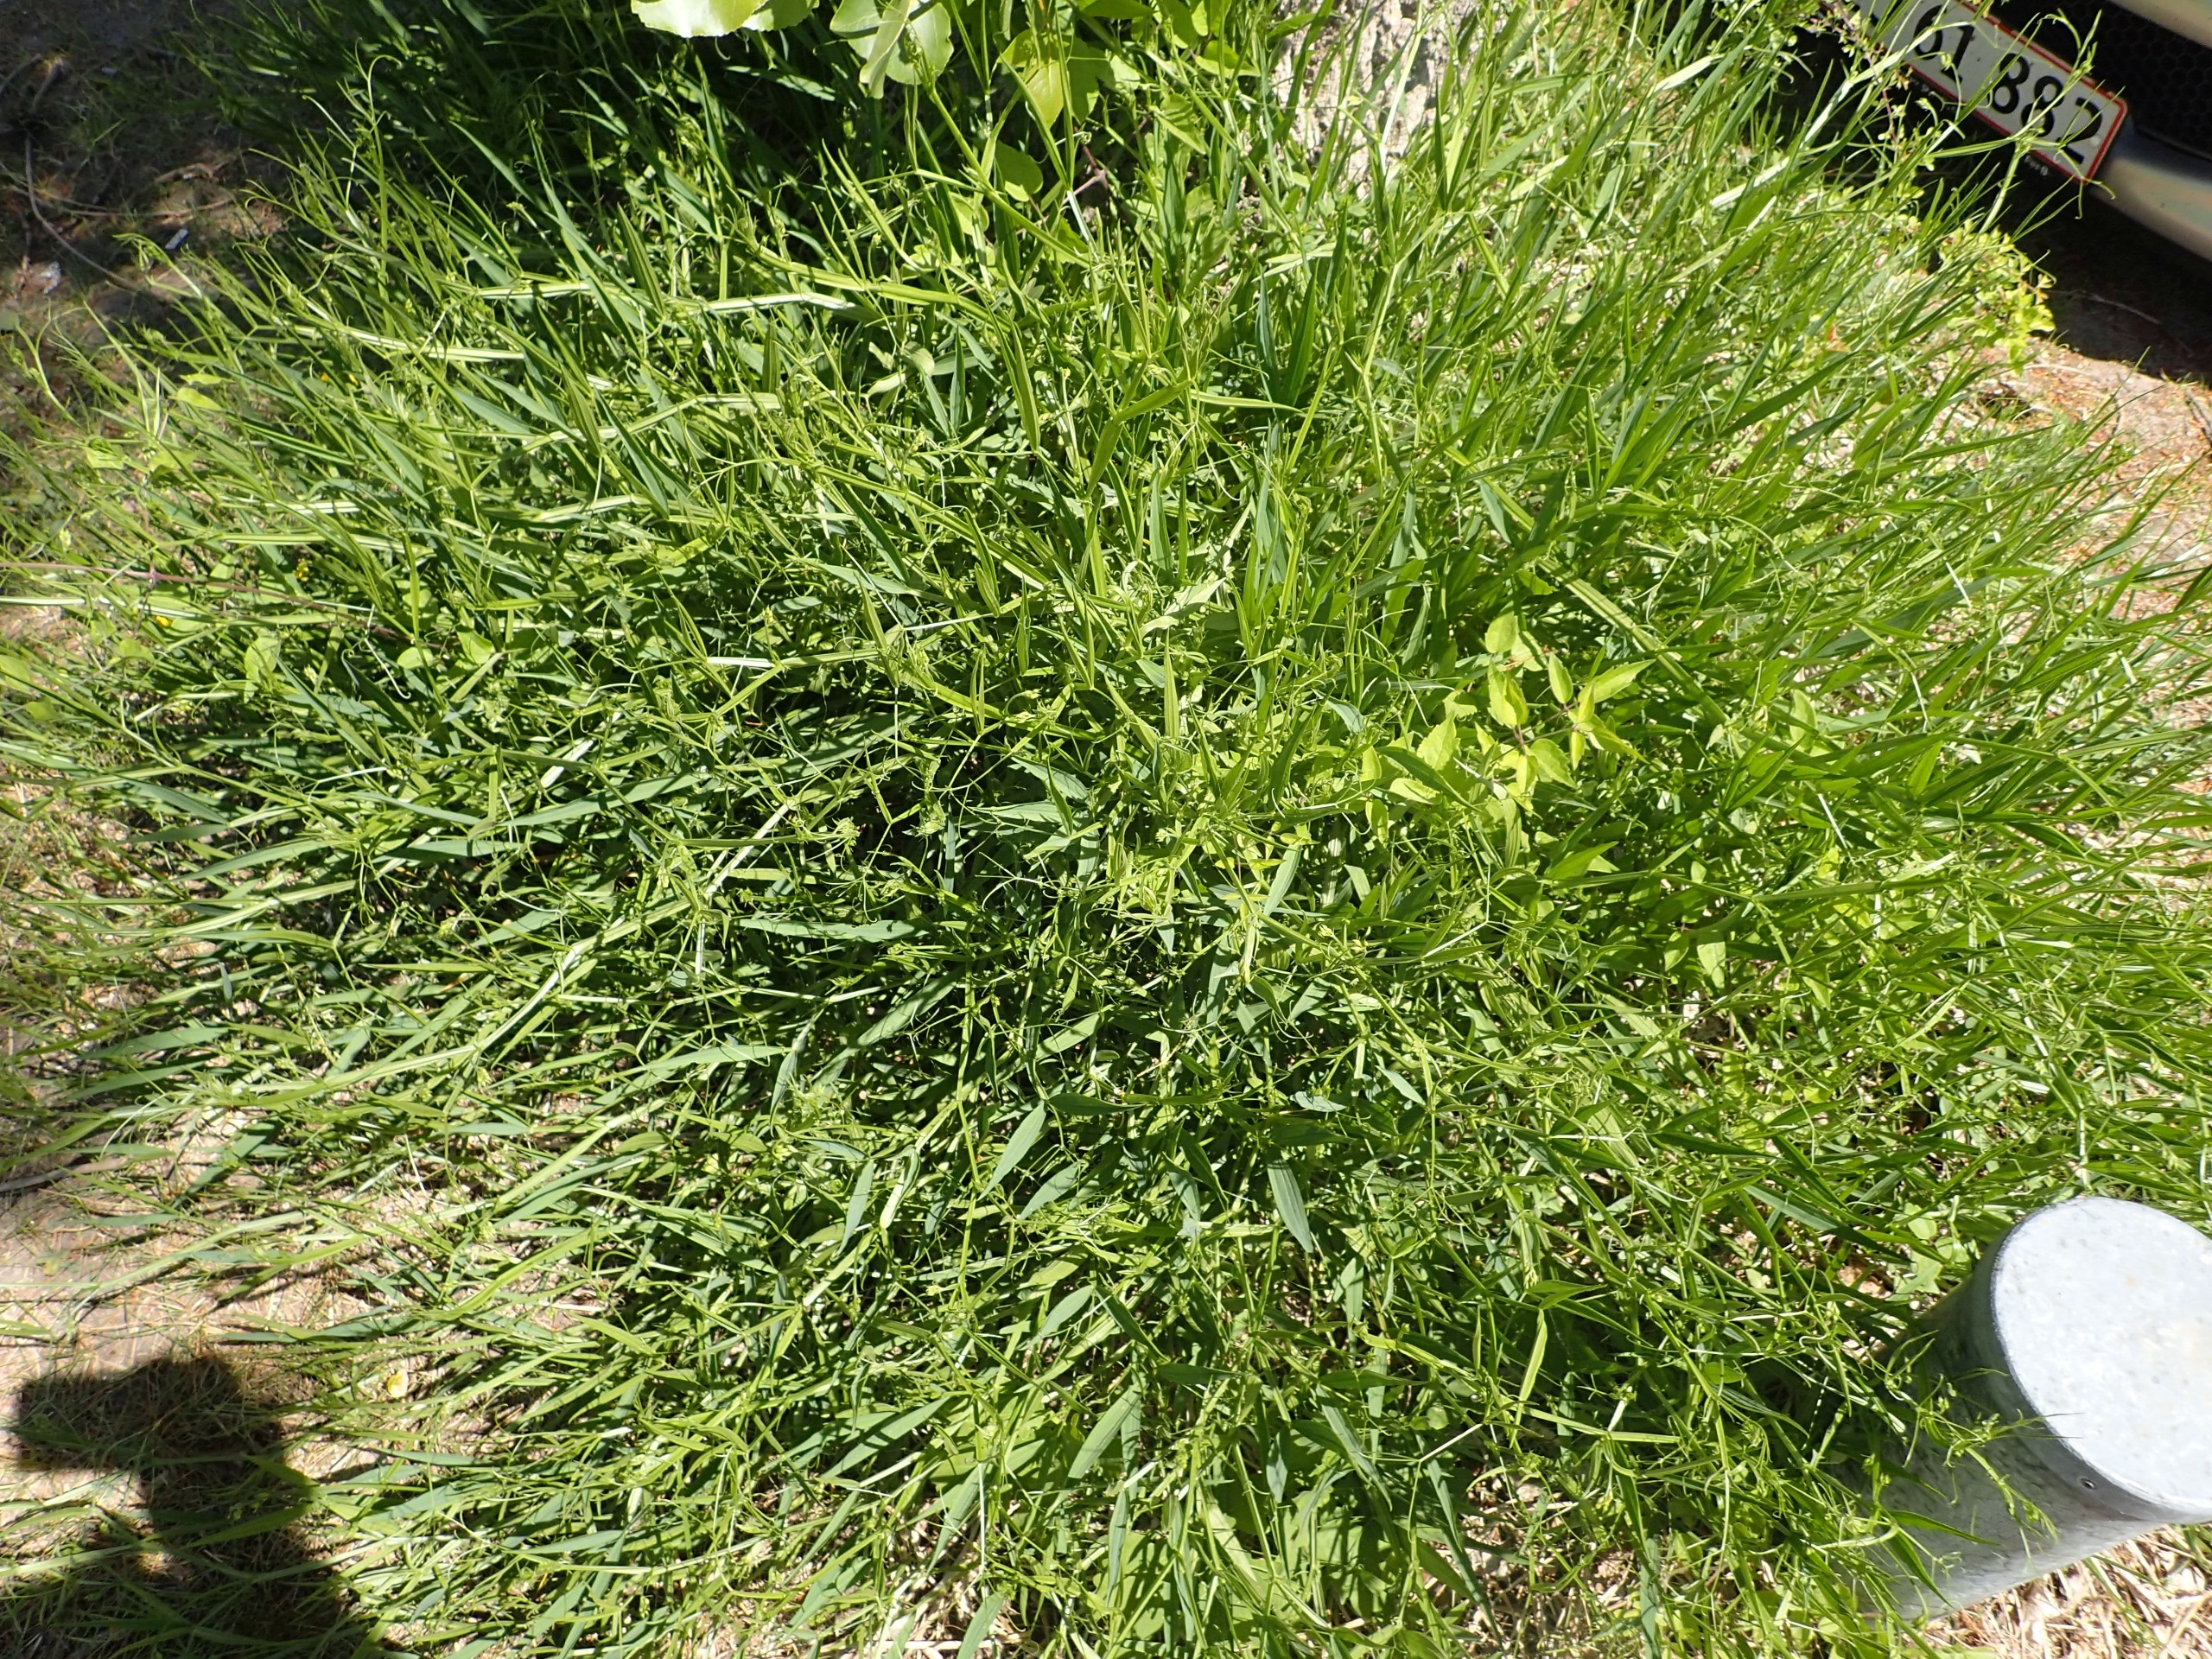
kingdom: Plantae
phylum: Tracheophyta
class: Magnoliopsida
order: Fabales
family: Fabaceae
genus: Lathyrus
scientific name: Lathyrus sylvestris
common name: Skov-fladbælg
